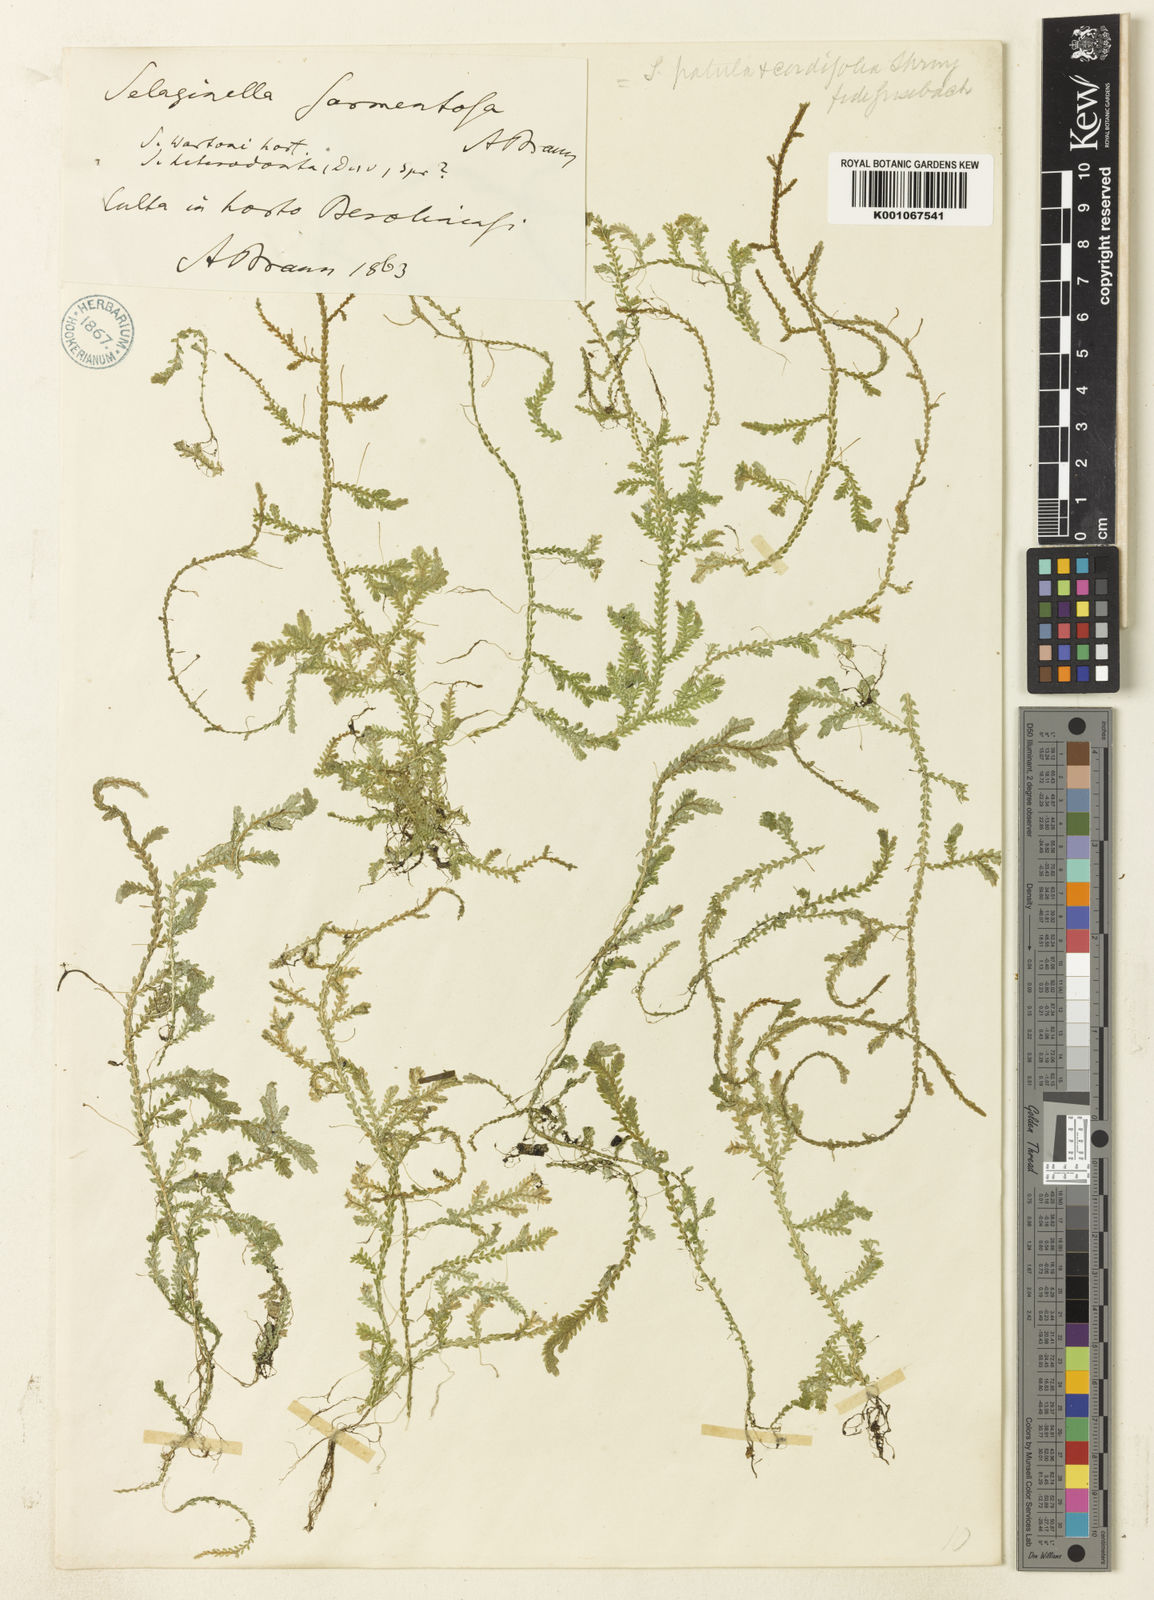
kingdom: Plantae
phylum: Tracheophyta
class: Lycopodiopsida
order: Selaginellales
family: Selaginellaceae
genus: Selaginella
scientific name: Selaginella heterodonta
